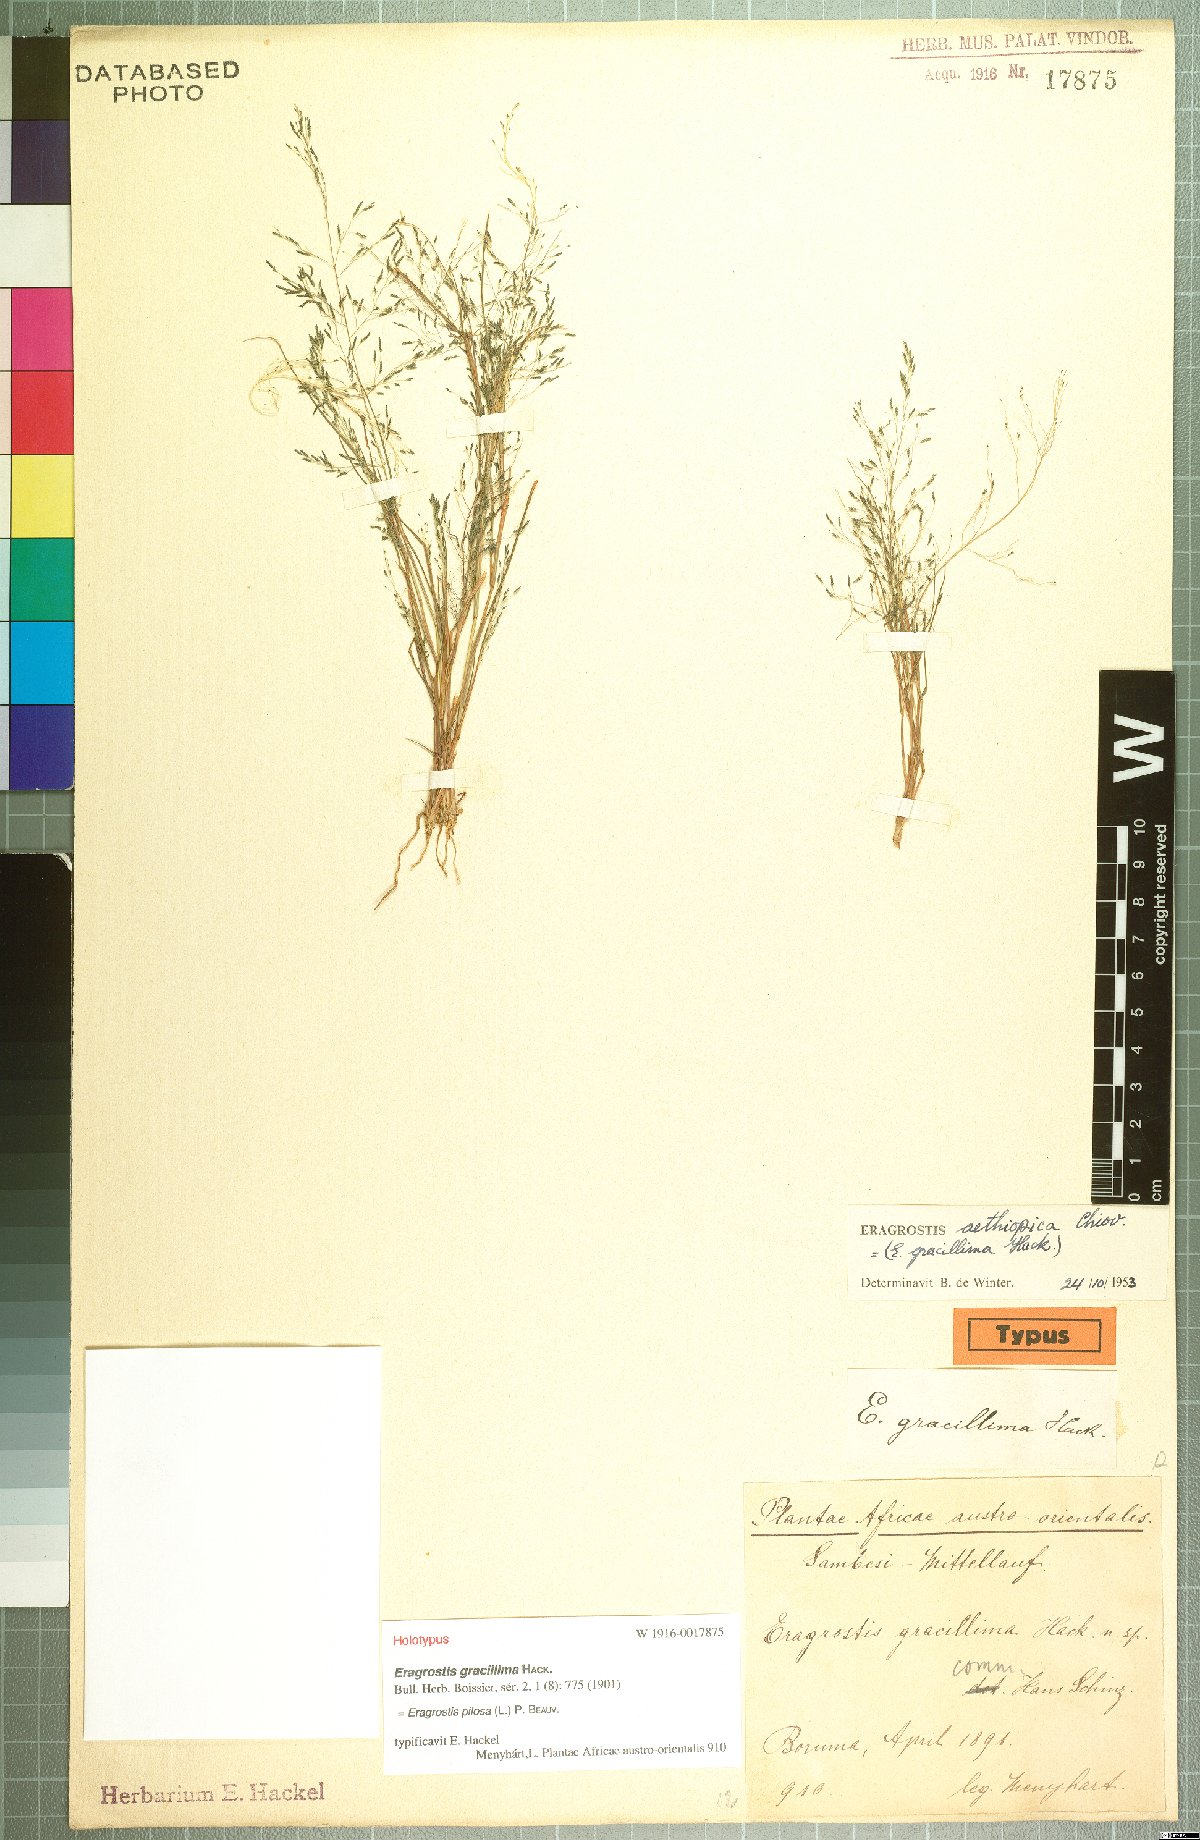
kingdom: Plantae
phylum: Tracheophyta
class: Liliopsida
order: Poales
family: Poaceae
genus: Eragrostis
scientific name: Eragrostis pilosa
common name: Indian lovegrass
